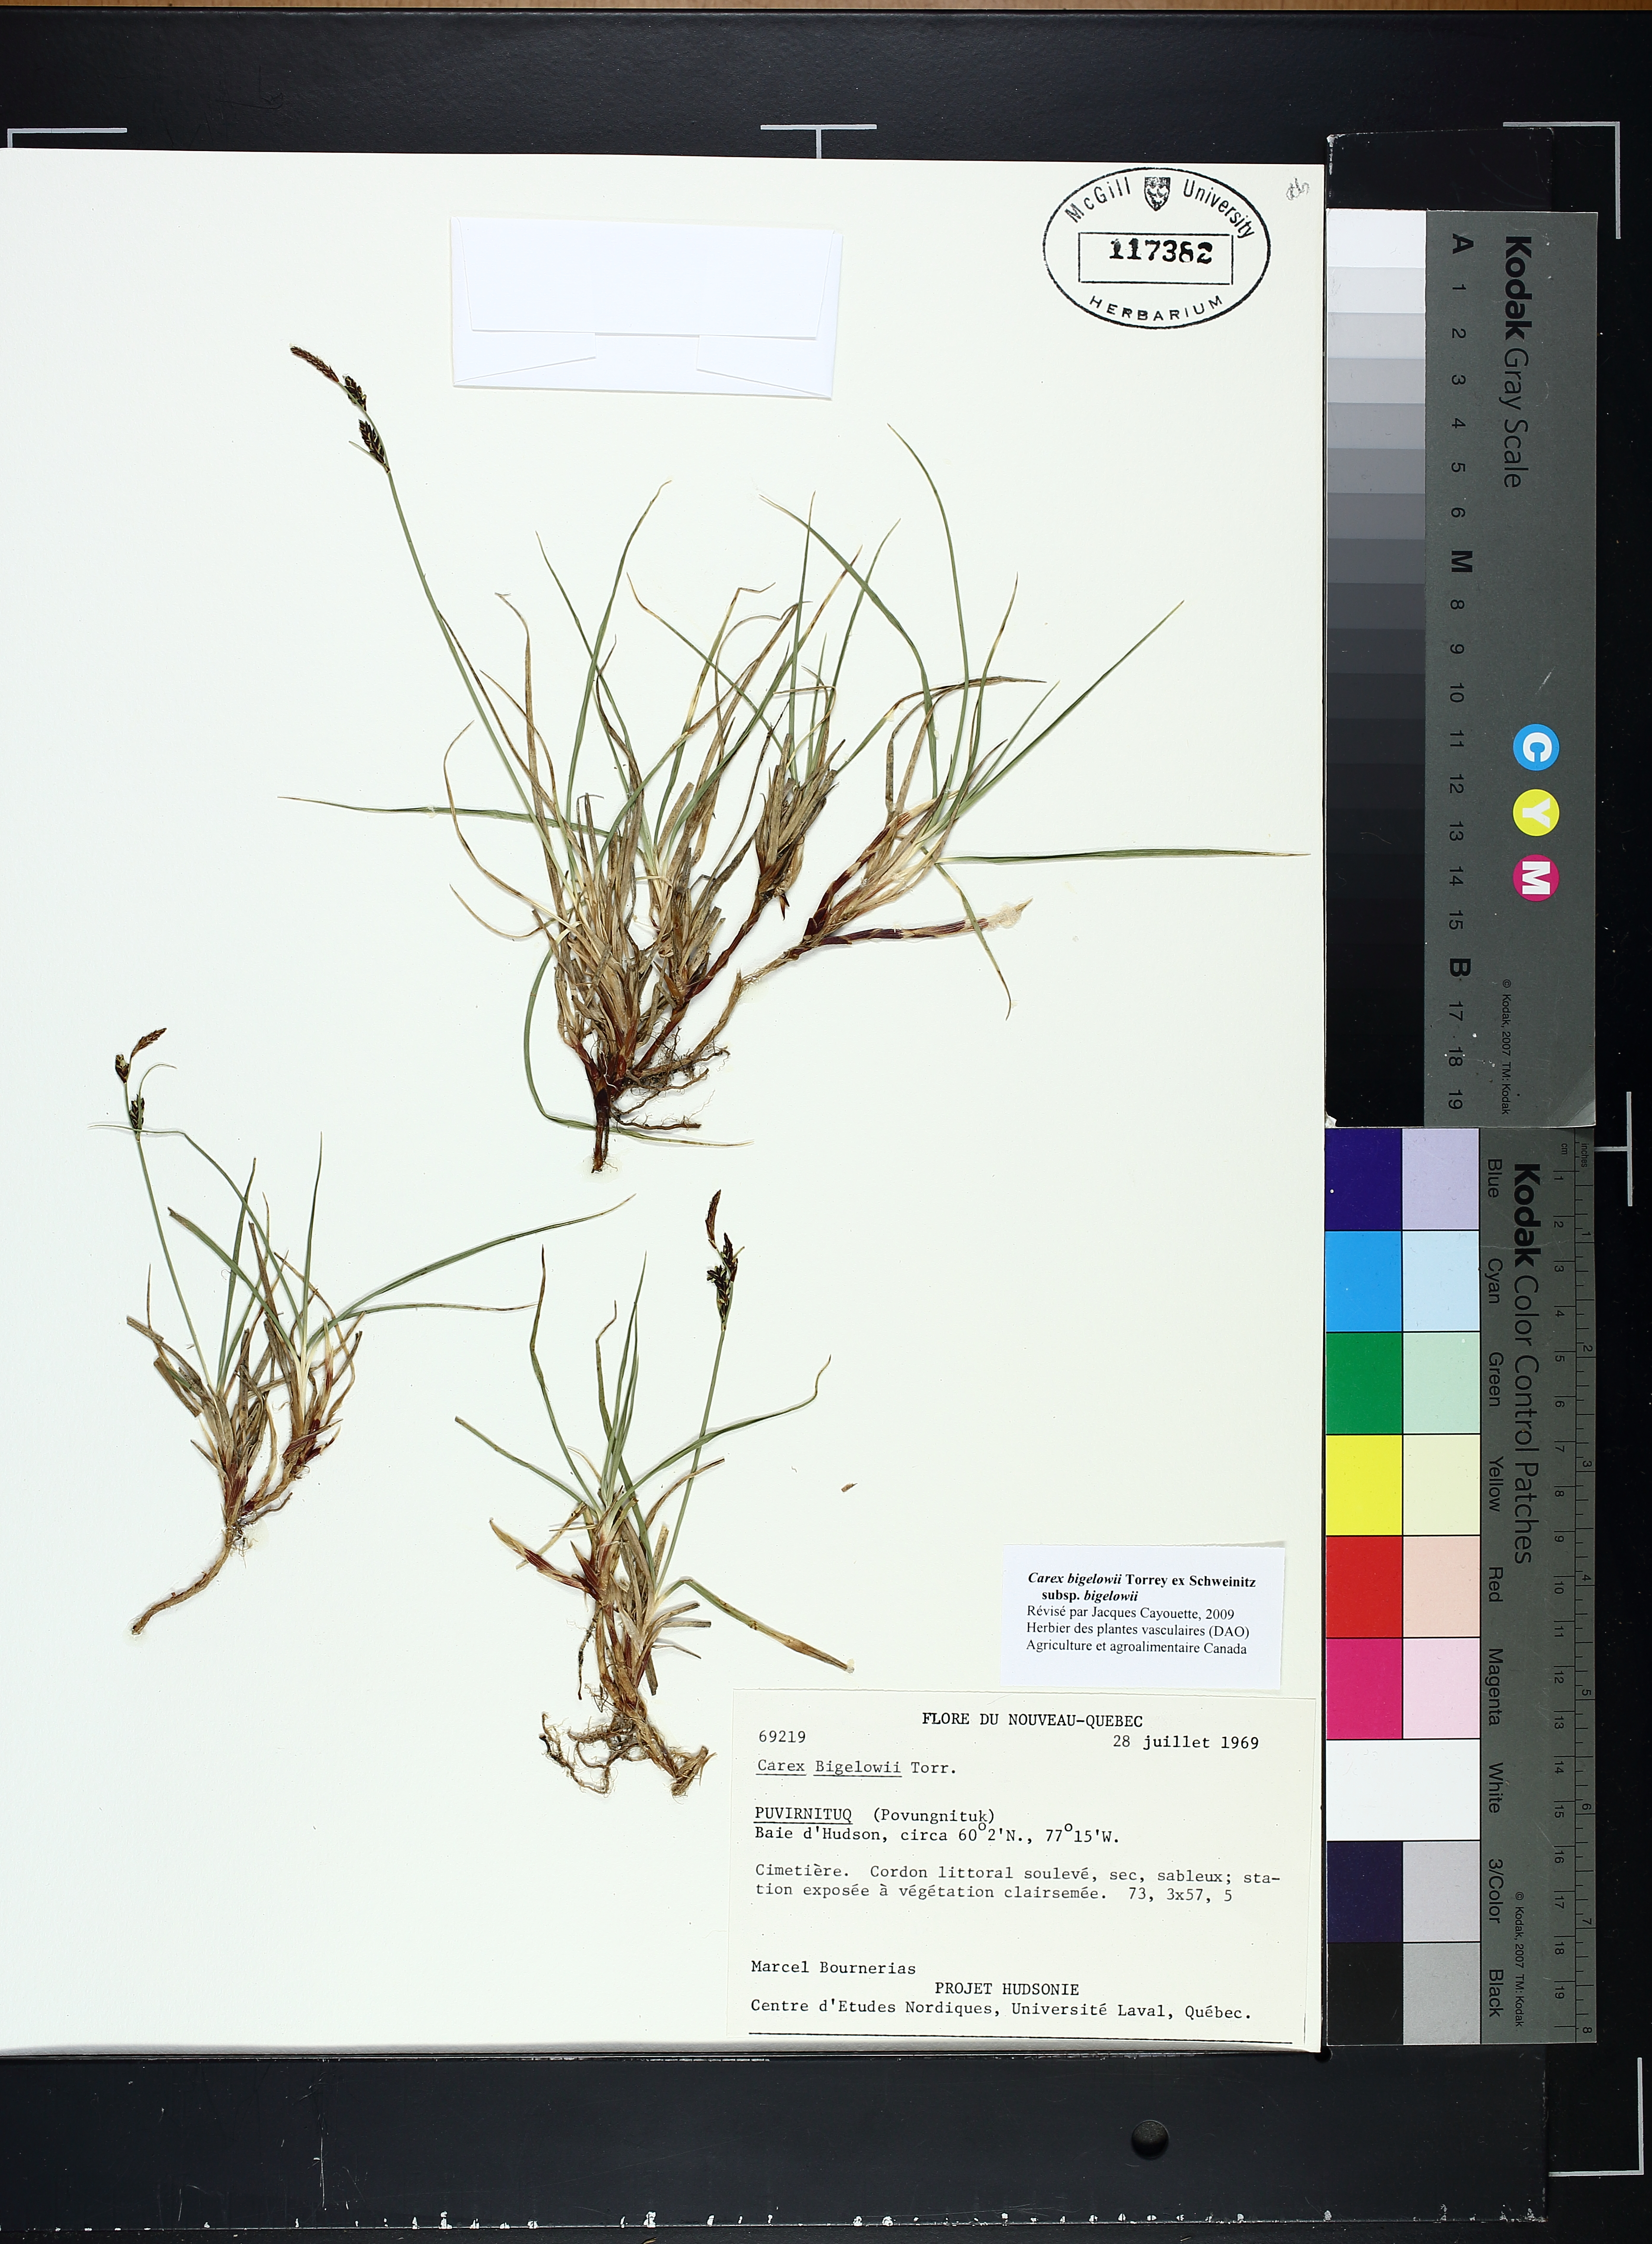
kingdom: Plantae
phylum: Tracheophyta
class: Liliopsida
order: Poales
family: Cyperaceae
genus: Carex
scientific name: Carex bigelowii
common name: Stiff sedge
